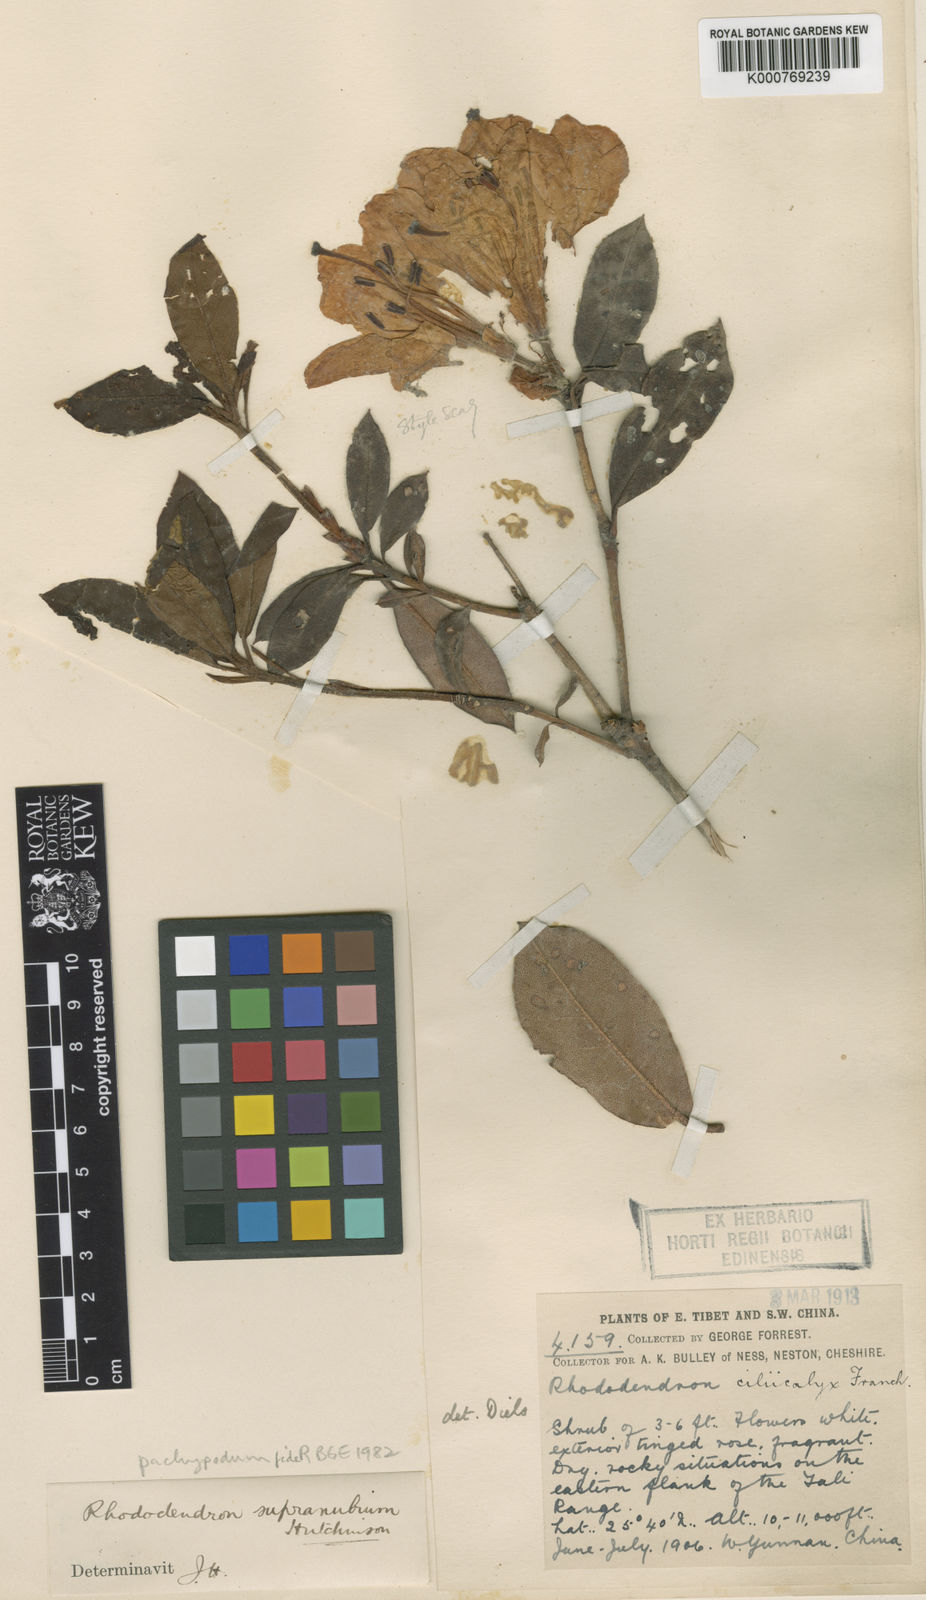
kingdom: Plantae
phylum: Tracheophyta
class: Magnoliopsida
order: Ericales
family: Ericaceae
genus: Rhododendron
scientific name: Rhododendron pachypodum
